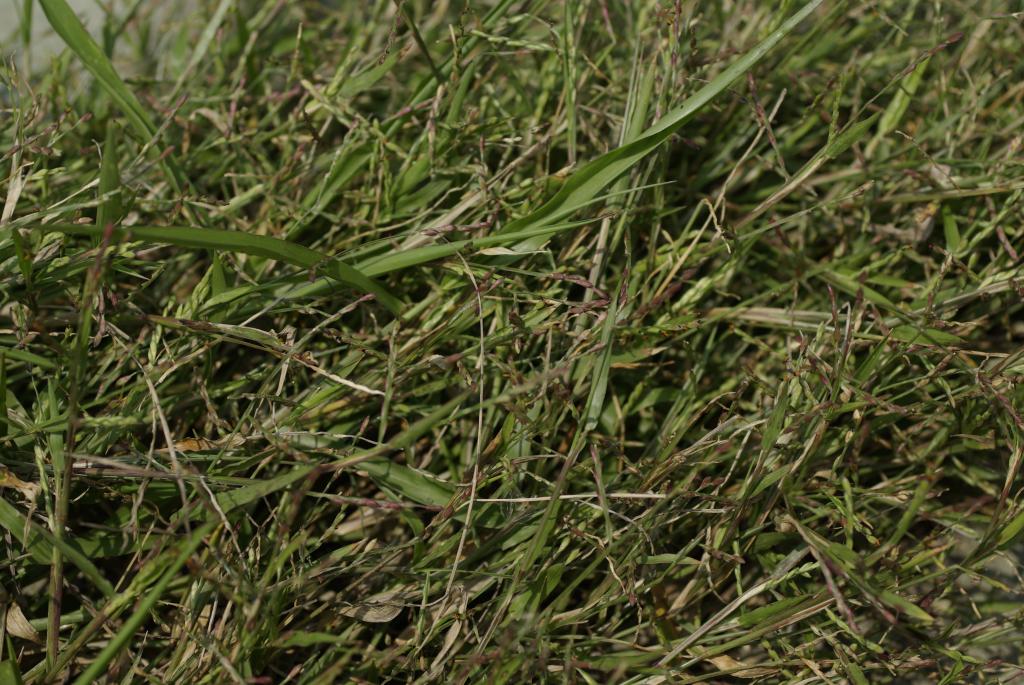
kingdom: Plantae
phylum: Tracheophyta
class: Liliopsida
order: Poales
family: Poaceae
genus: Urochloa
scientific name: Urochloa subquadripara
